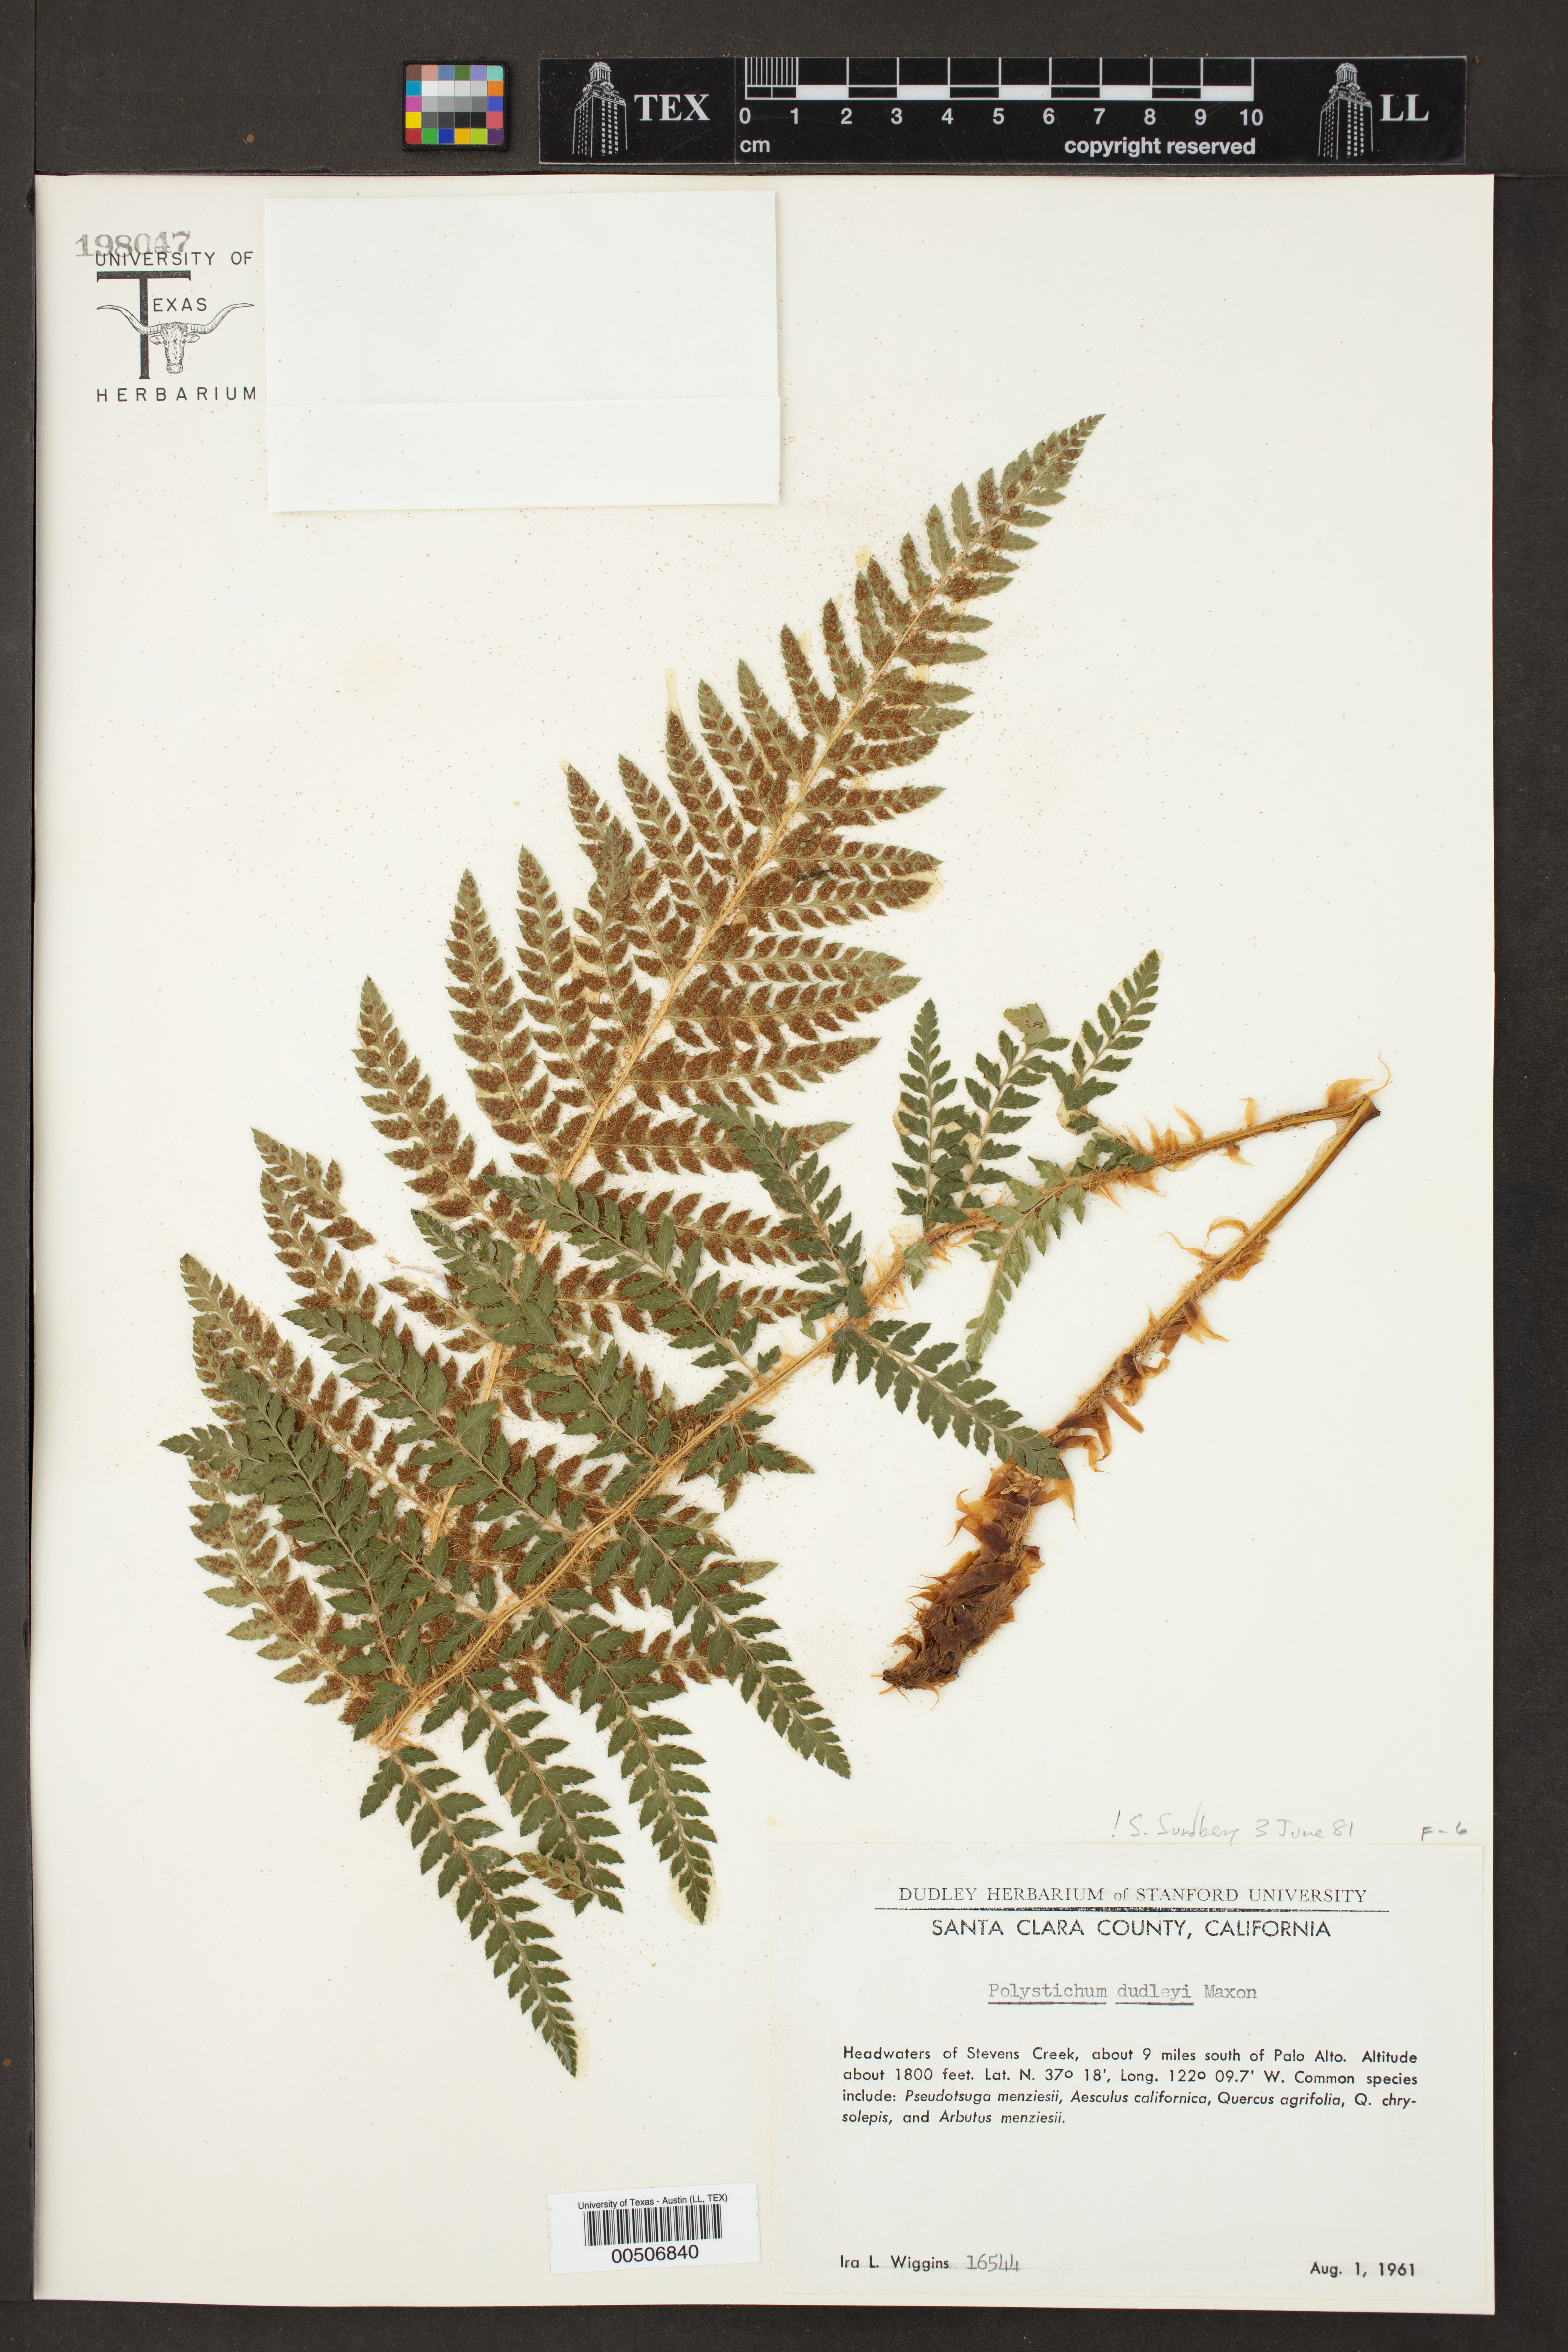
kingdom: Plantae
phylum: Tracheophyta
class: Polypodiopsida
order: Polypodiales
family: Dryopteridaceae
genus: Polystichum
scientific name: Polystichum dudleyi
